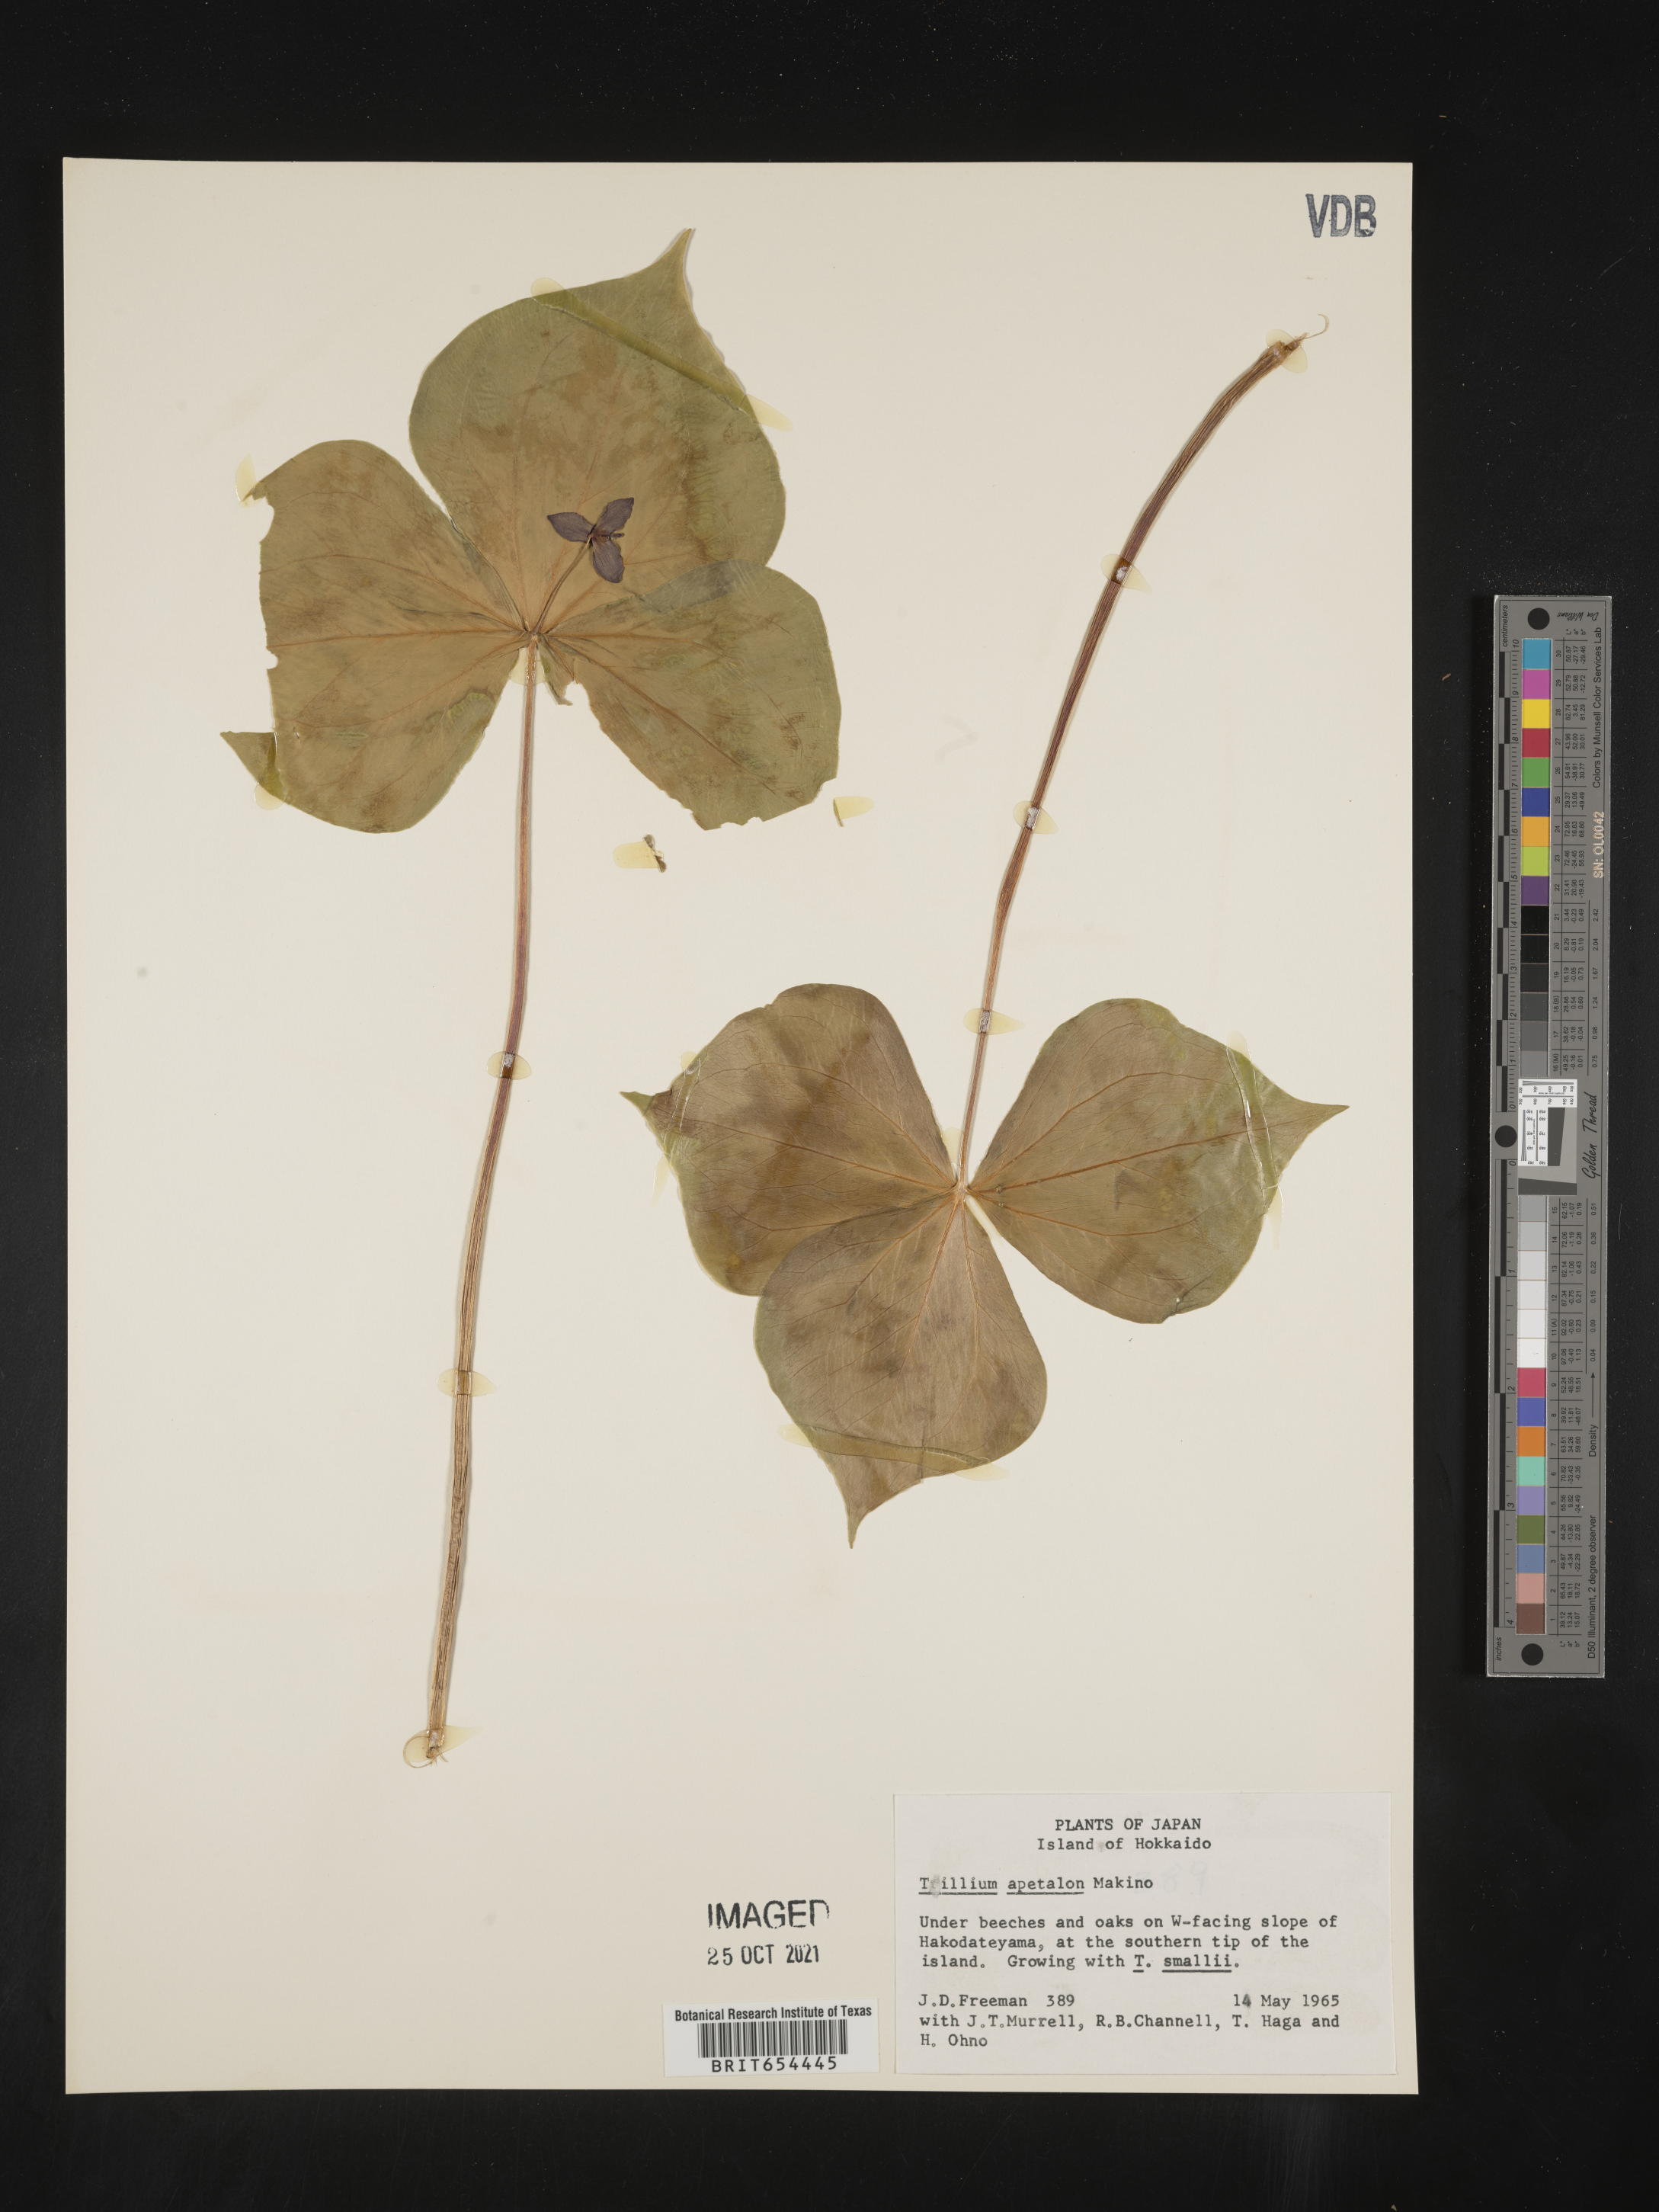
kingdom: Plantae
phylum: Tracheophyta
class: Liliopsida
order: Liliales
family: Melanthiaceae
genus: Trillium
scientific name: Trillium
